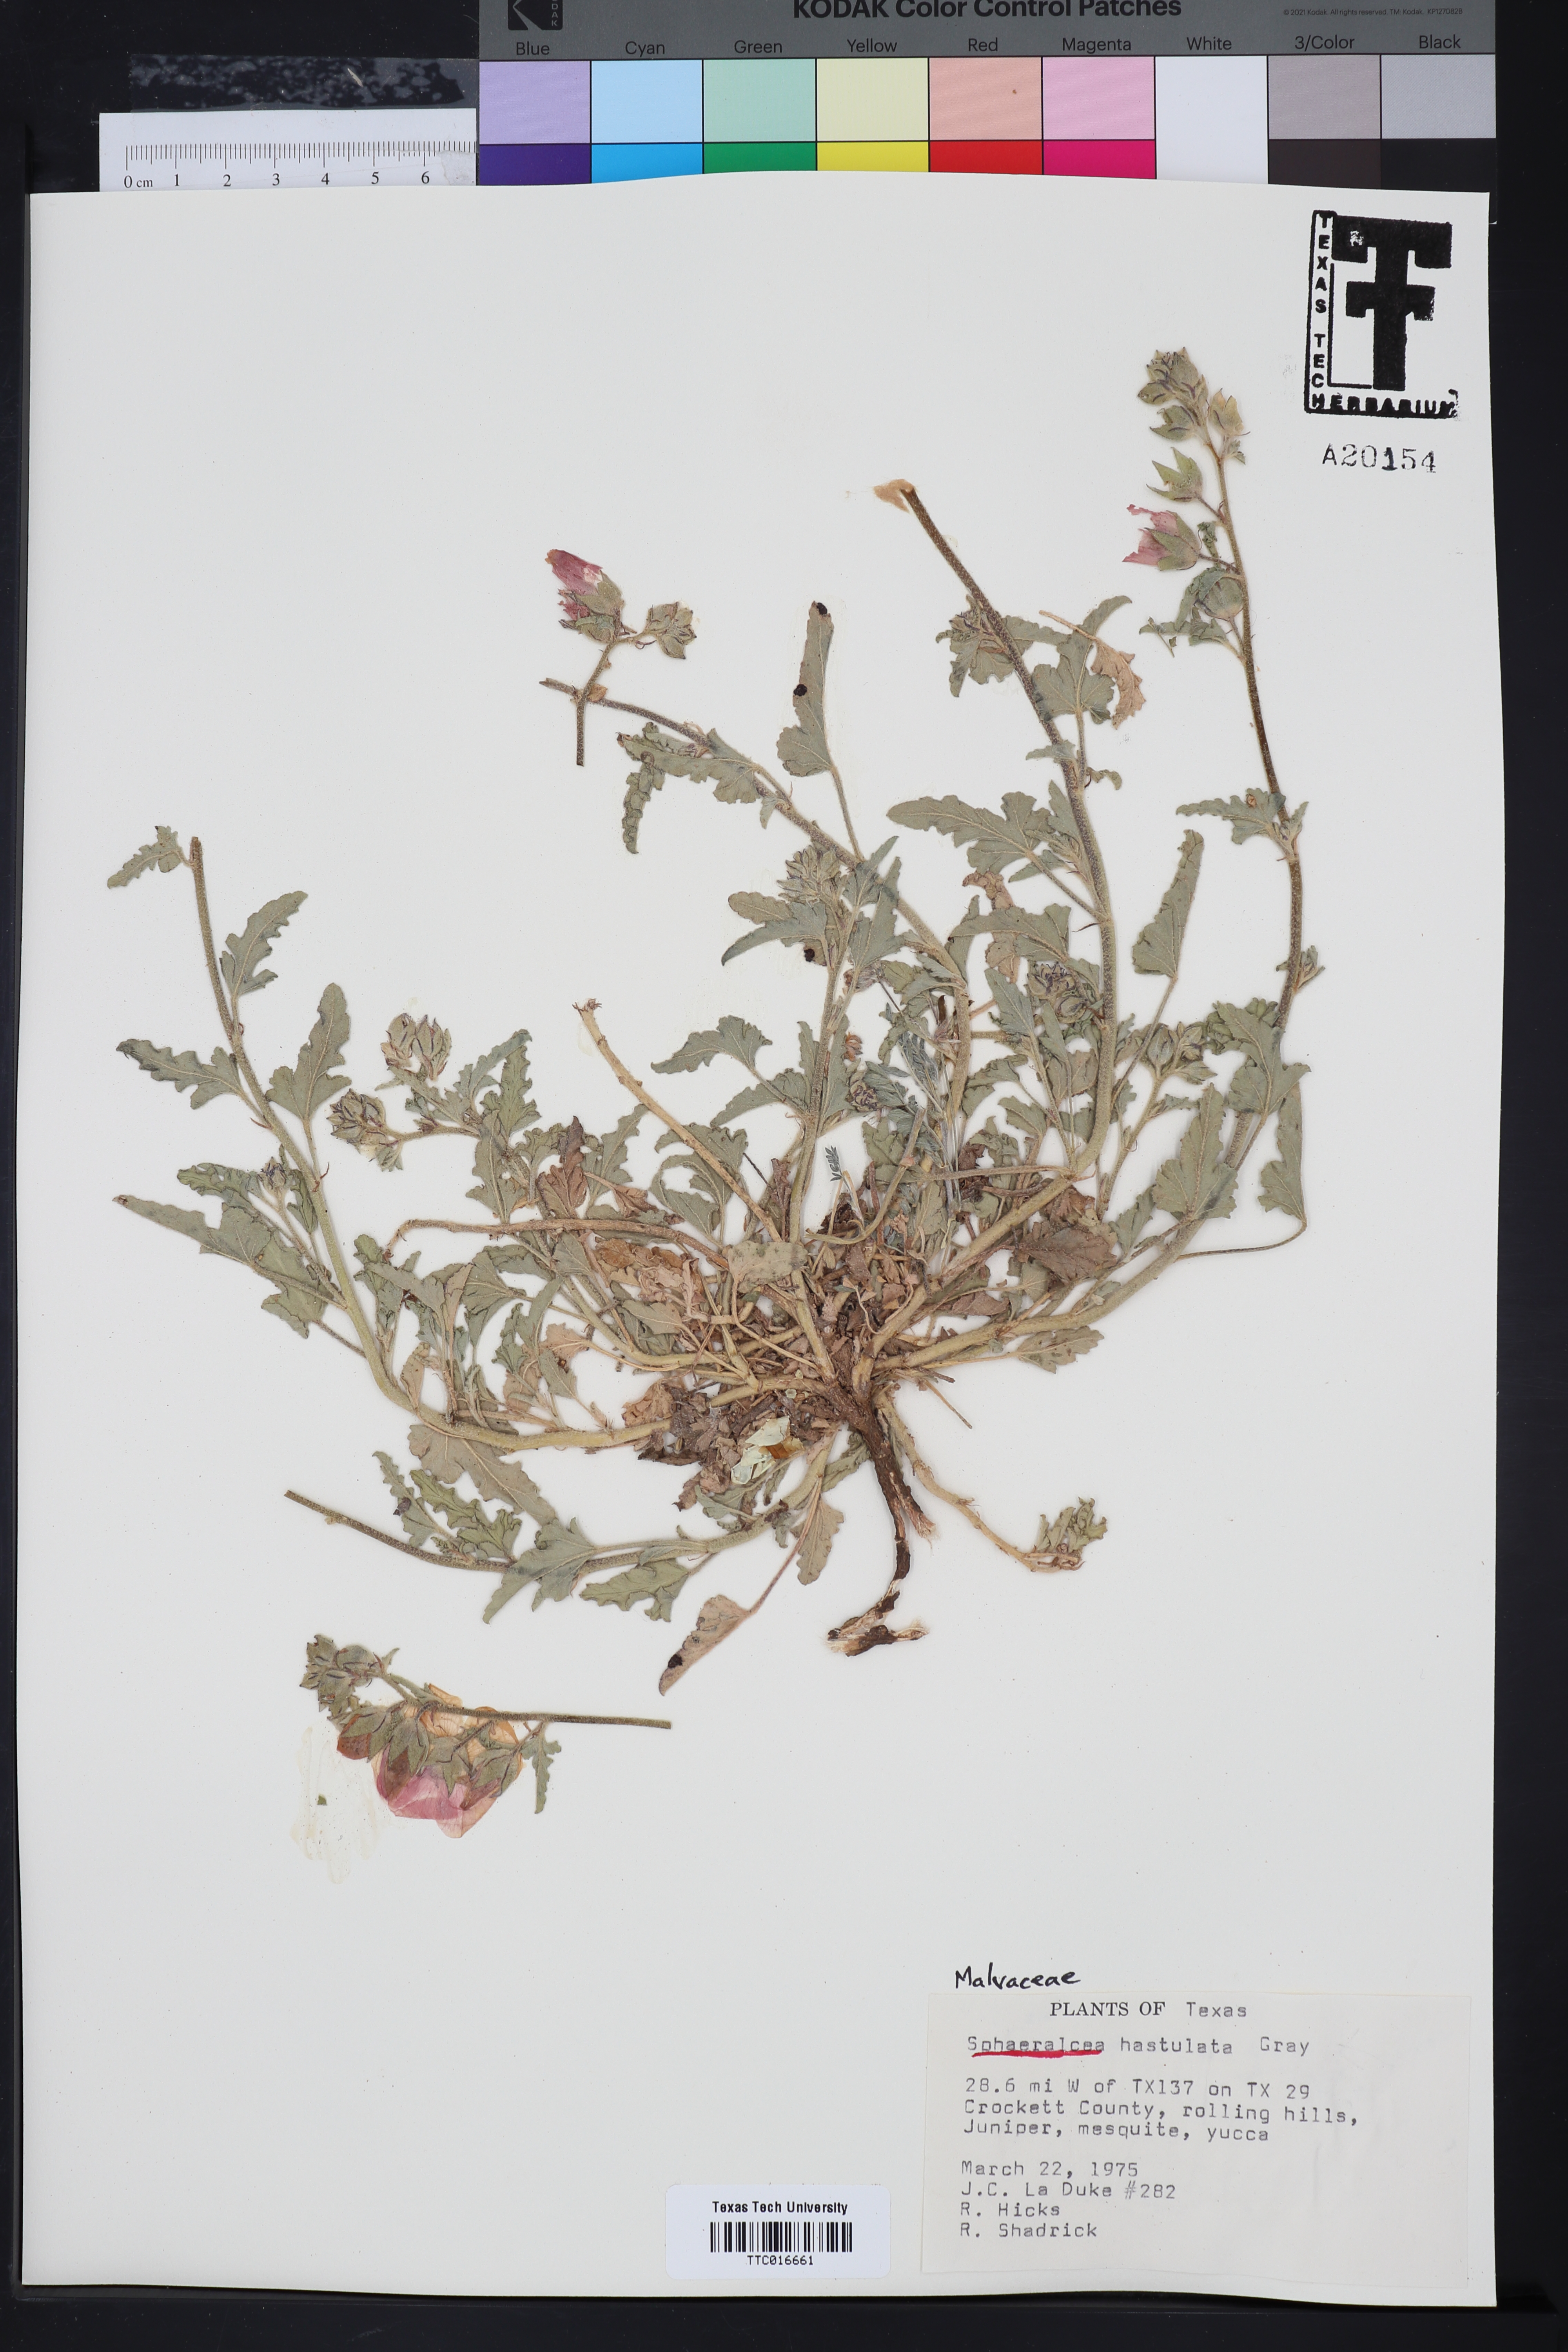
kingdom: Plantae
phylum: Tracheophyta
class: Magnoliopsida
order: Malvales
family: Malvaceae
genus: Sphaeralcea
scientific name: Sphaeralcea hastulata
